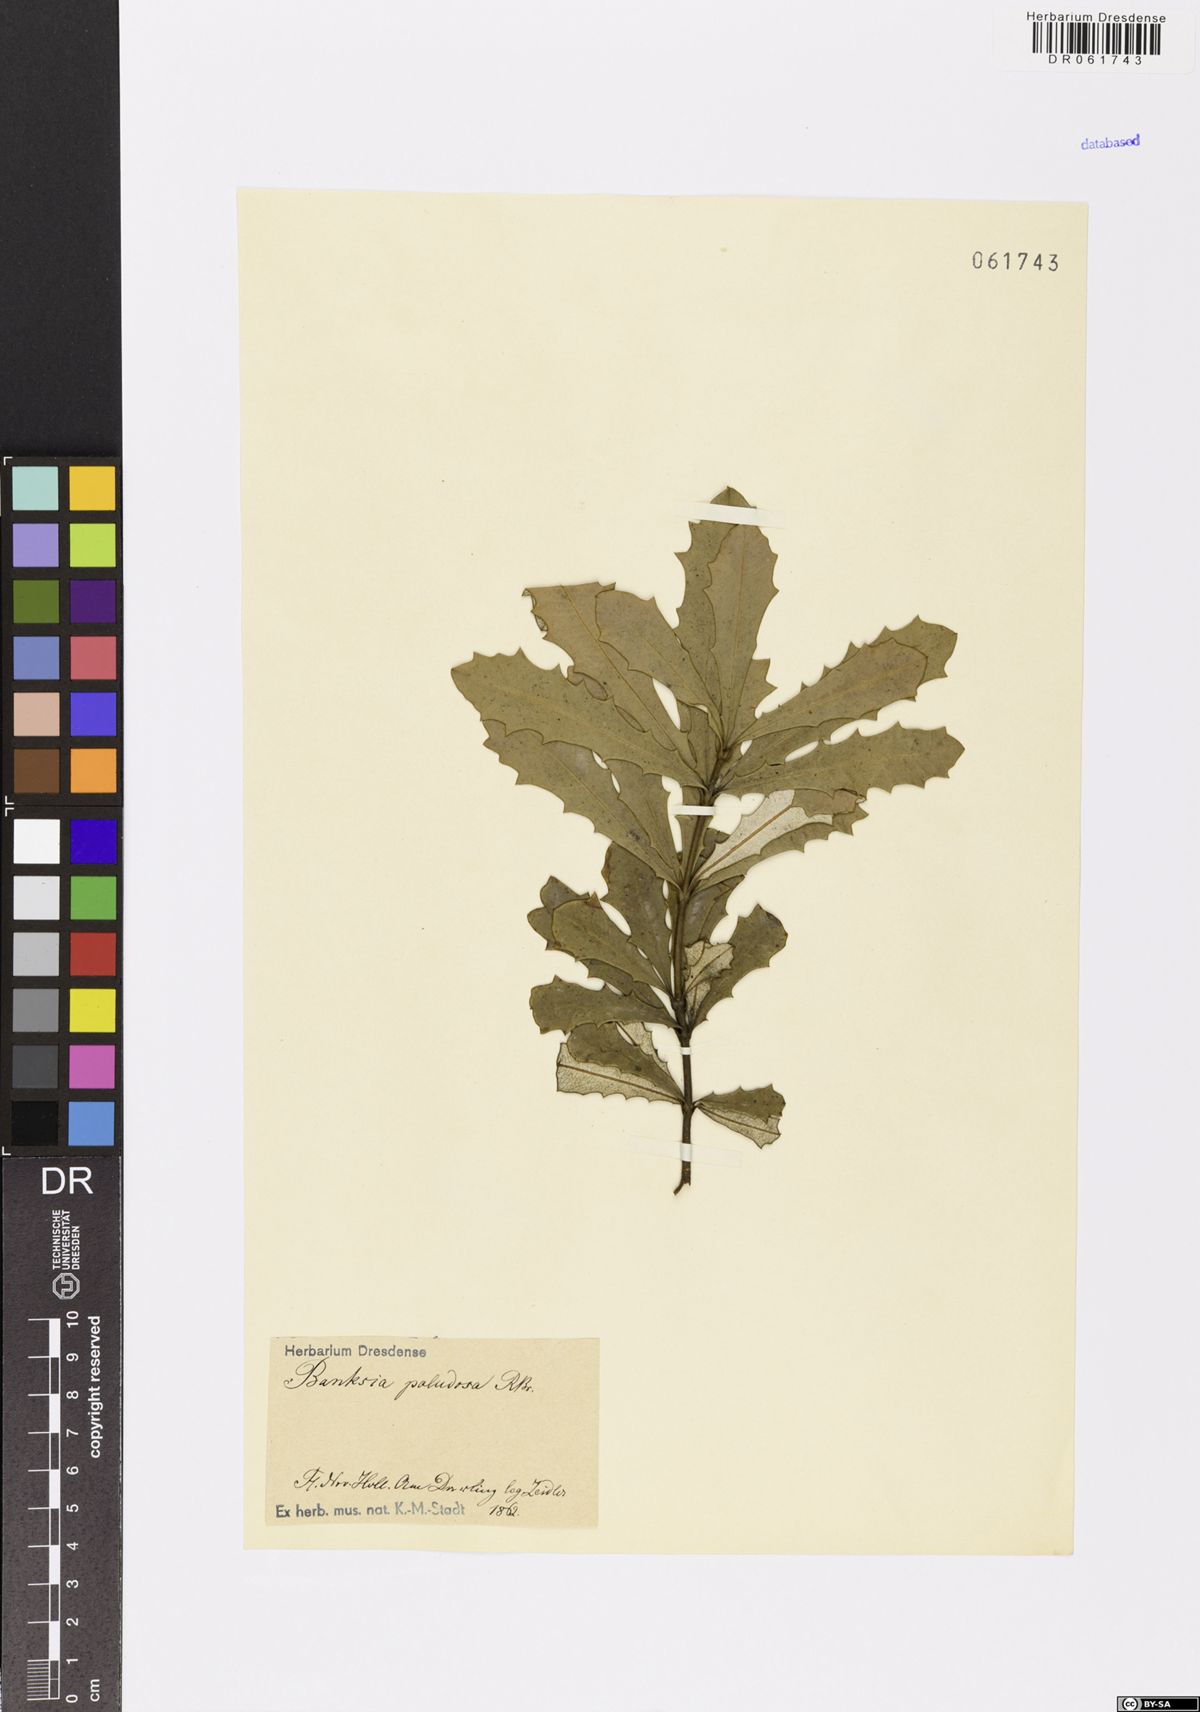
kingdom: Plantae
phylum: Tracheophyta
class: Magnoliopsida
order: Proteales
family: Proteaceae
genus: Banksia
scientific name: Banksia paludosa
